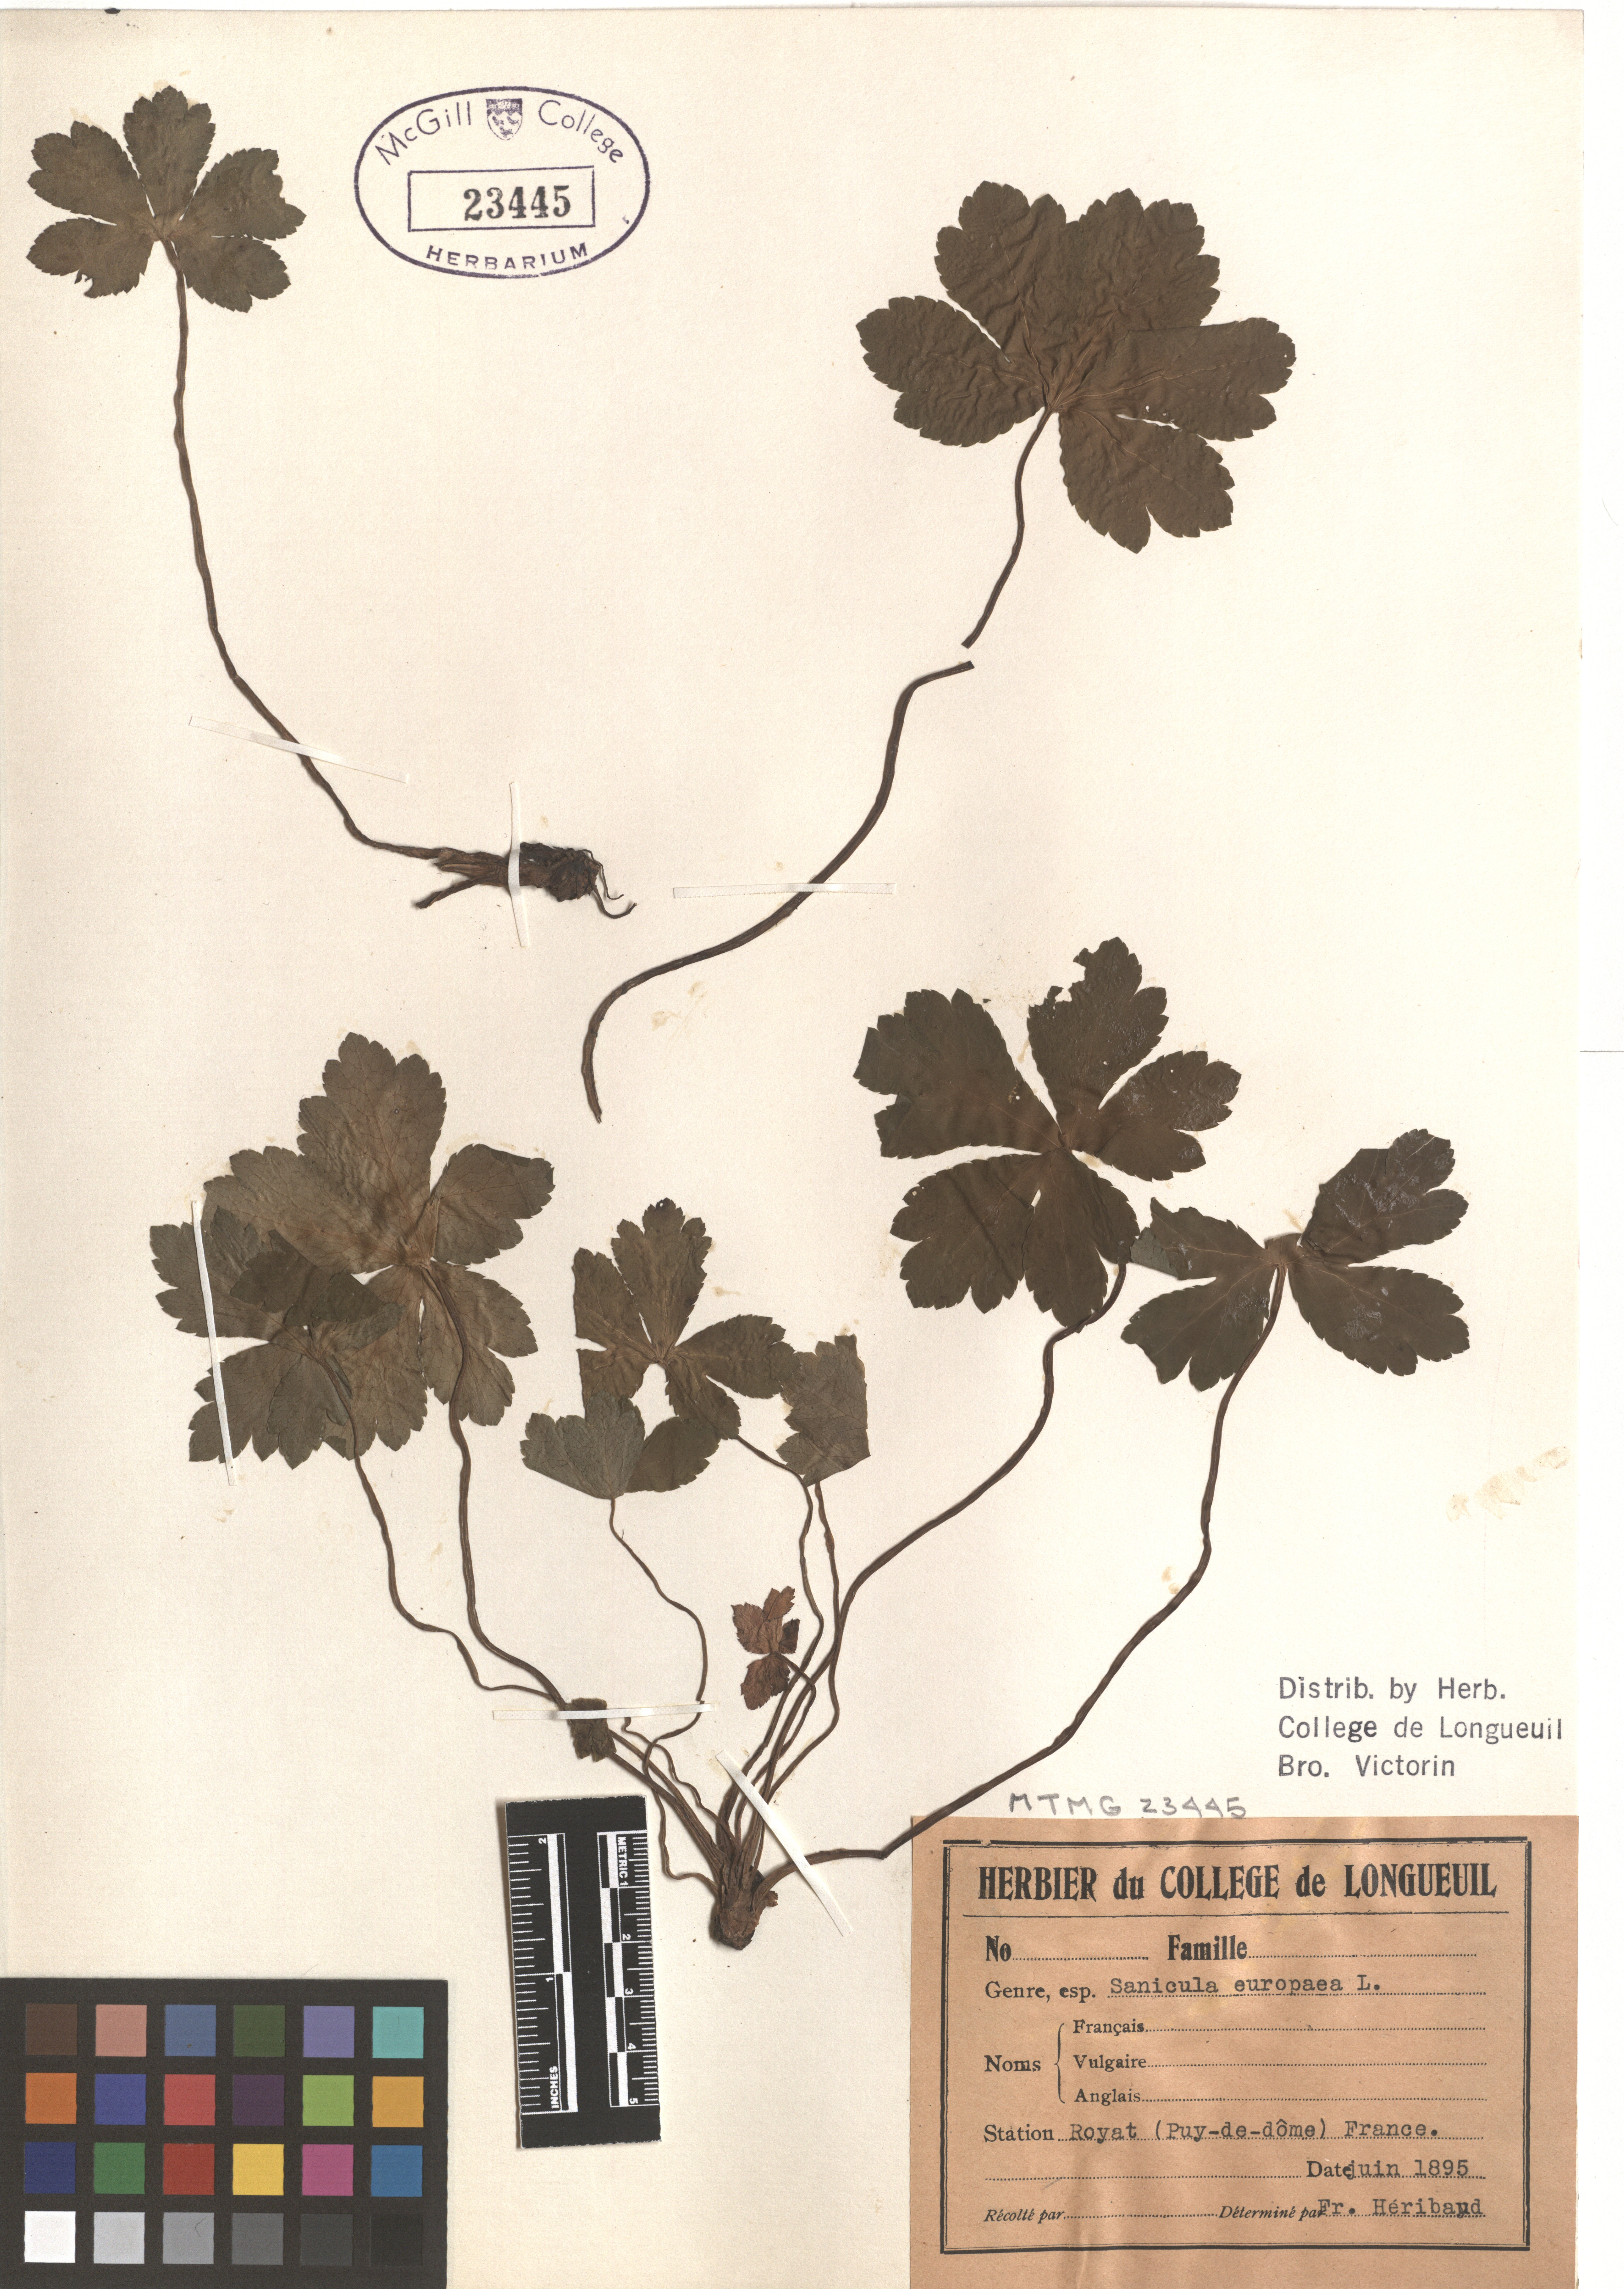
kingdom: Plantae
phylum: Tracheophyta
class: Magnoliopsida
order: Apiales
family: Apiaceae
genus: Sanicula
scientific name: Sanicula elata
